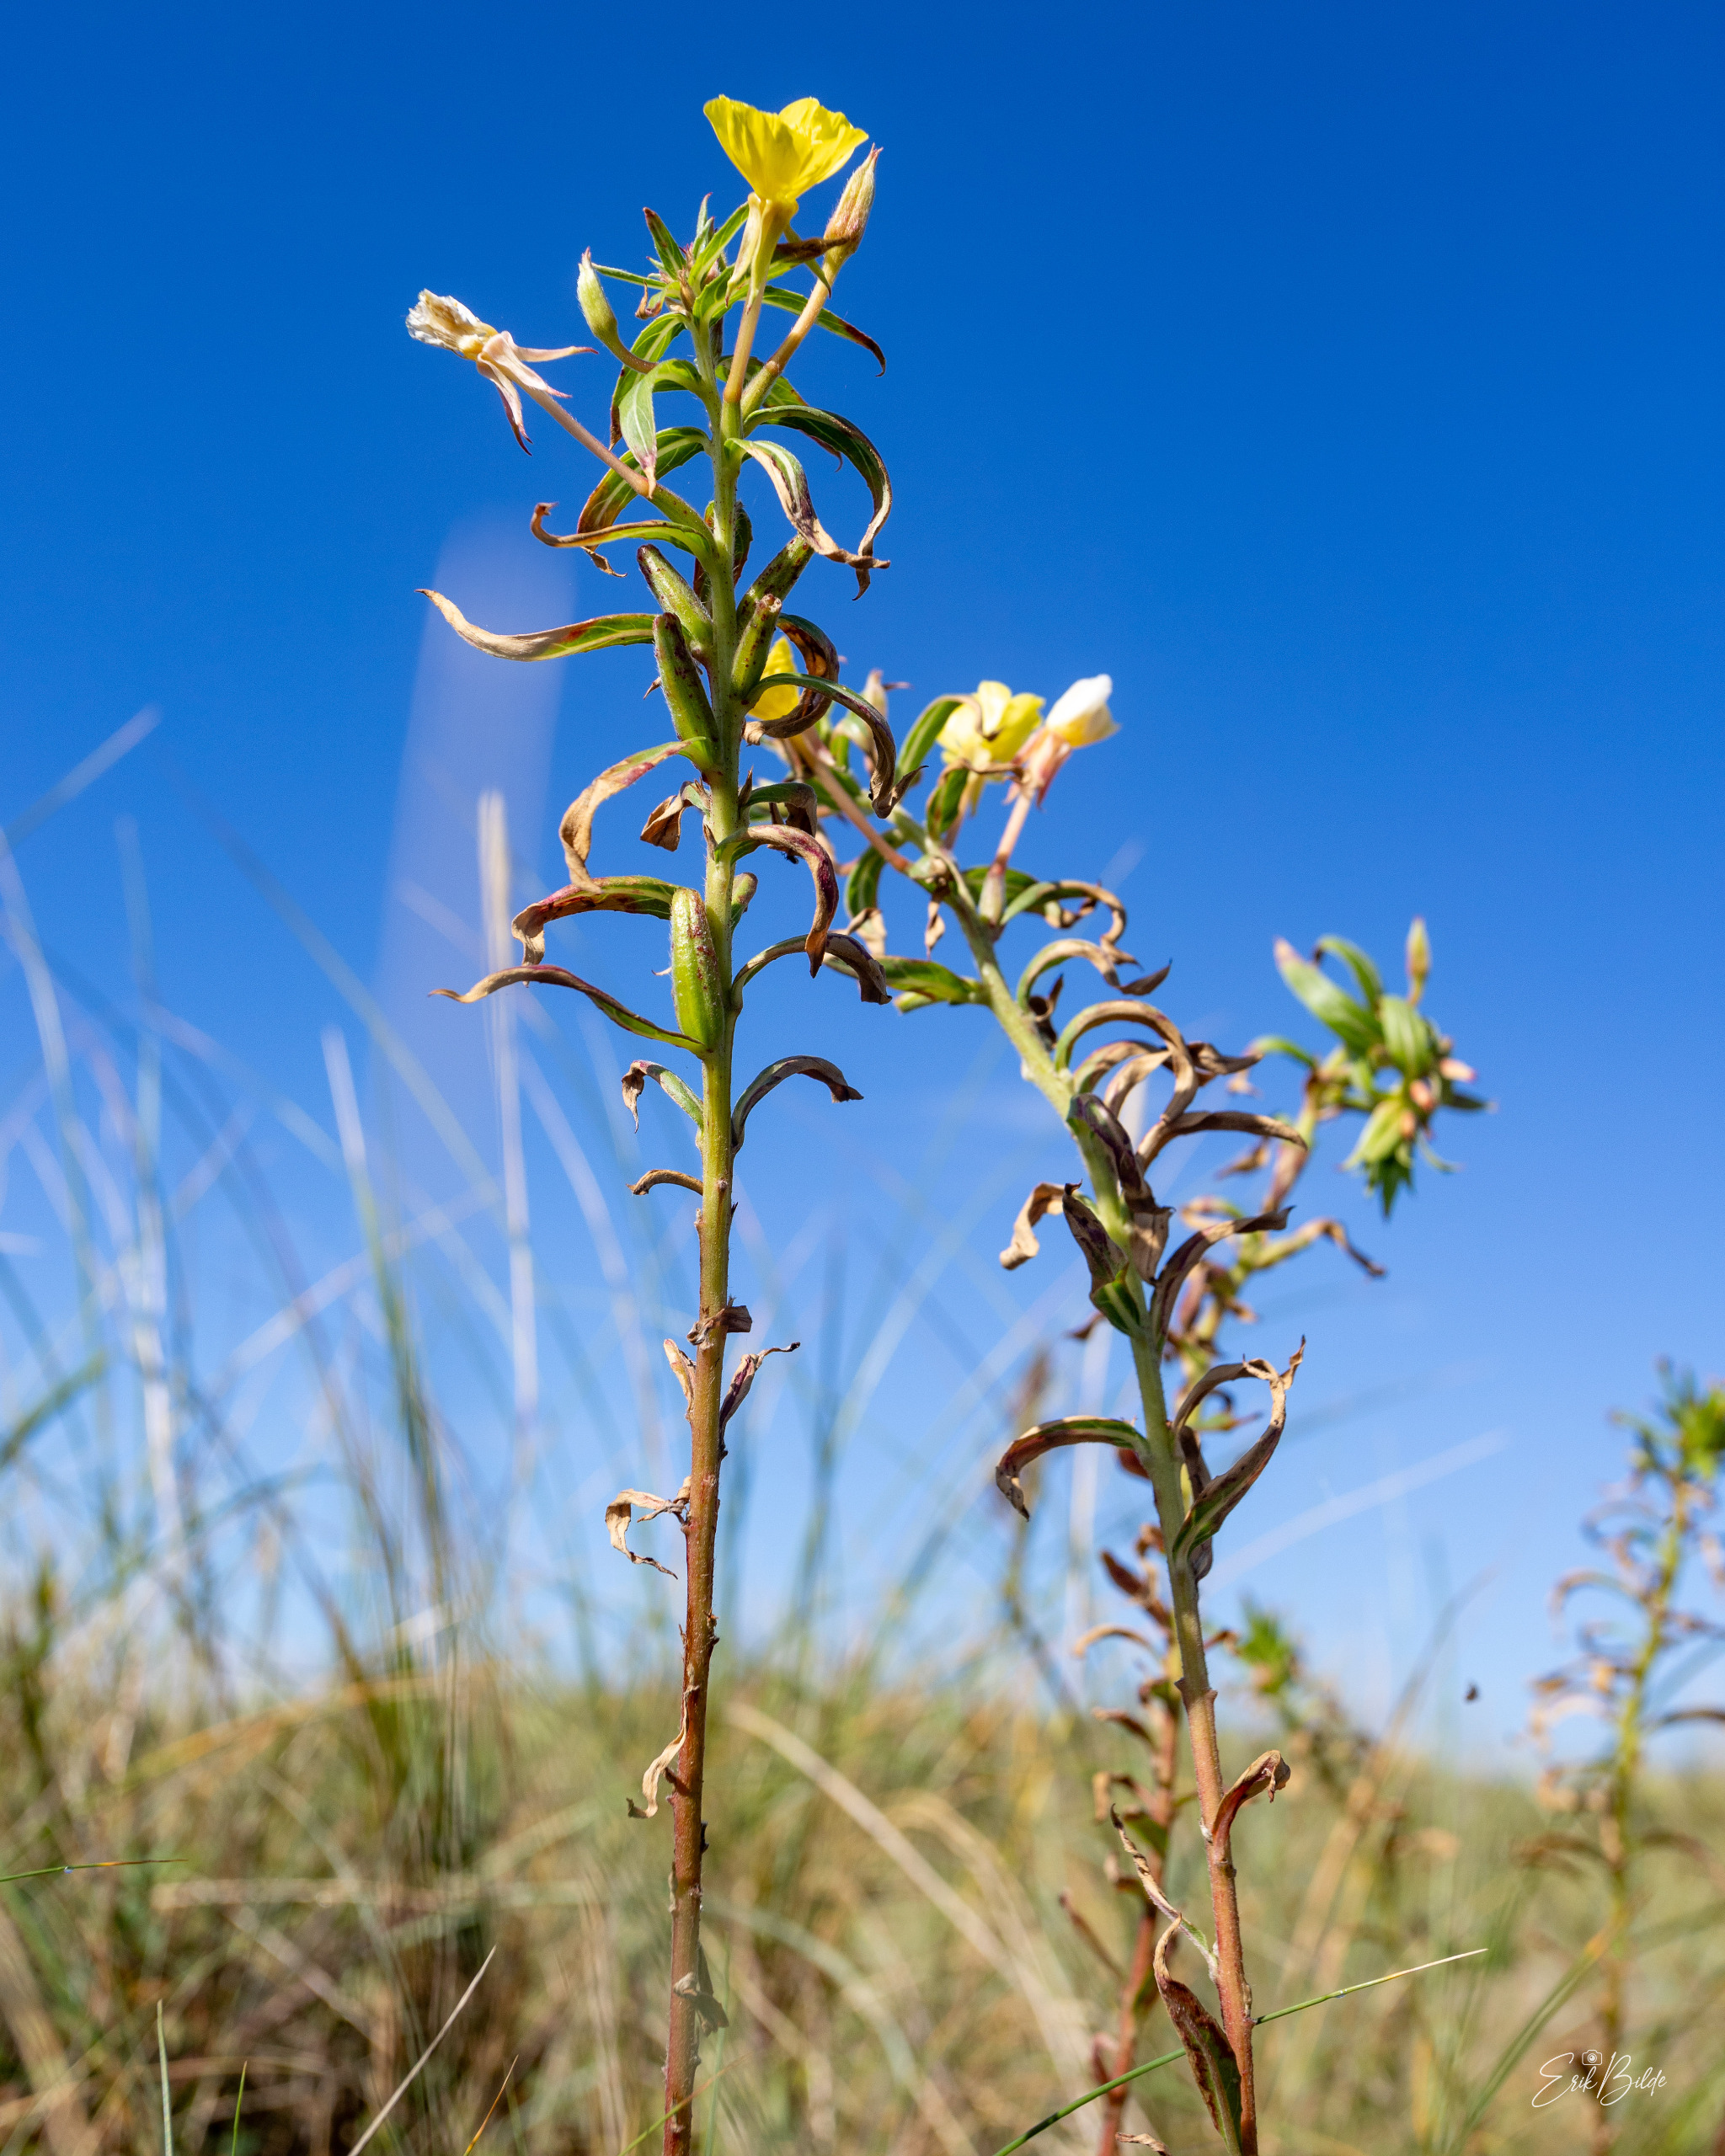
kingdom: Plantae
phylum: Tracheophyta
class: Magnoliopsida
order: Myrtales
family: Onagraceae
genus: Oenothera
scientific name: Oenothera ammophila
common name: Klit-natlys
